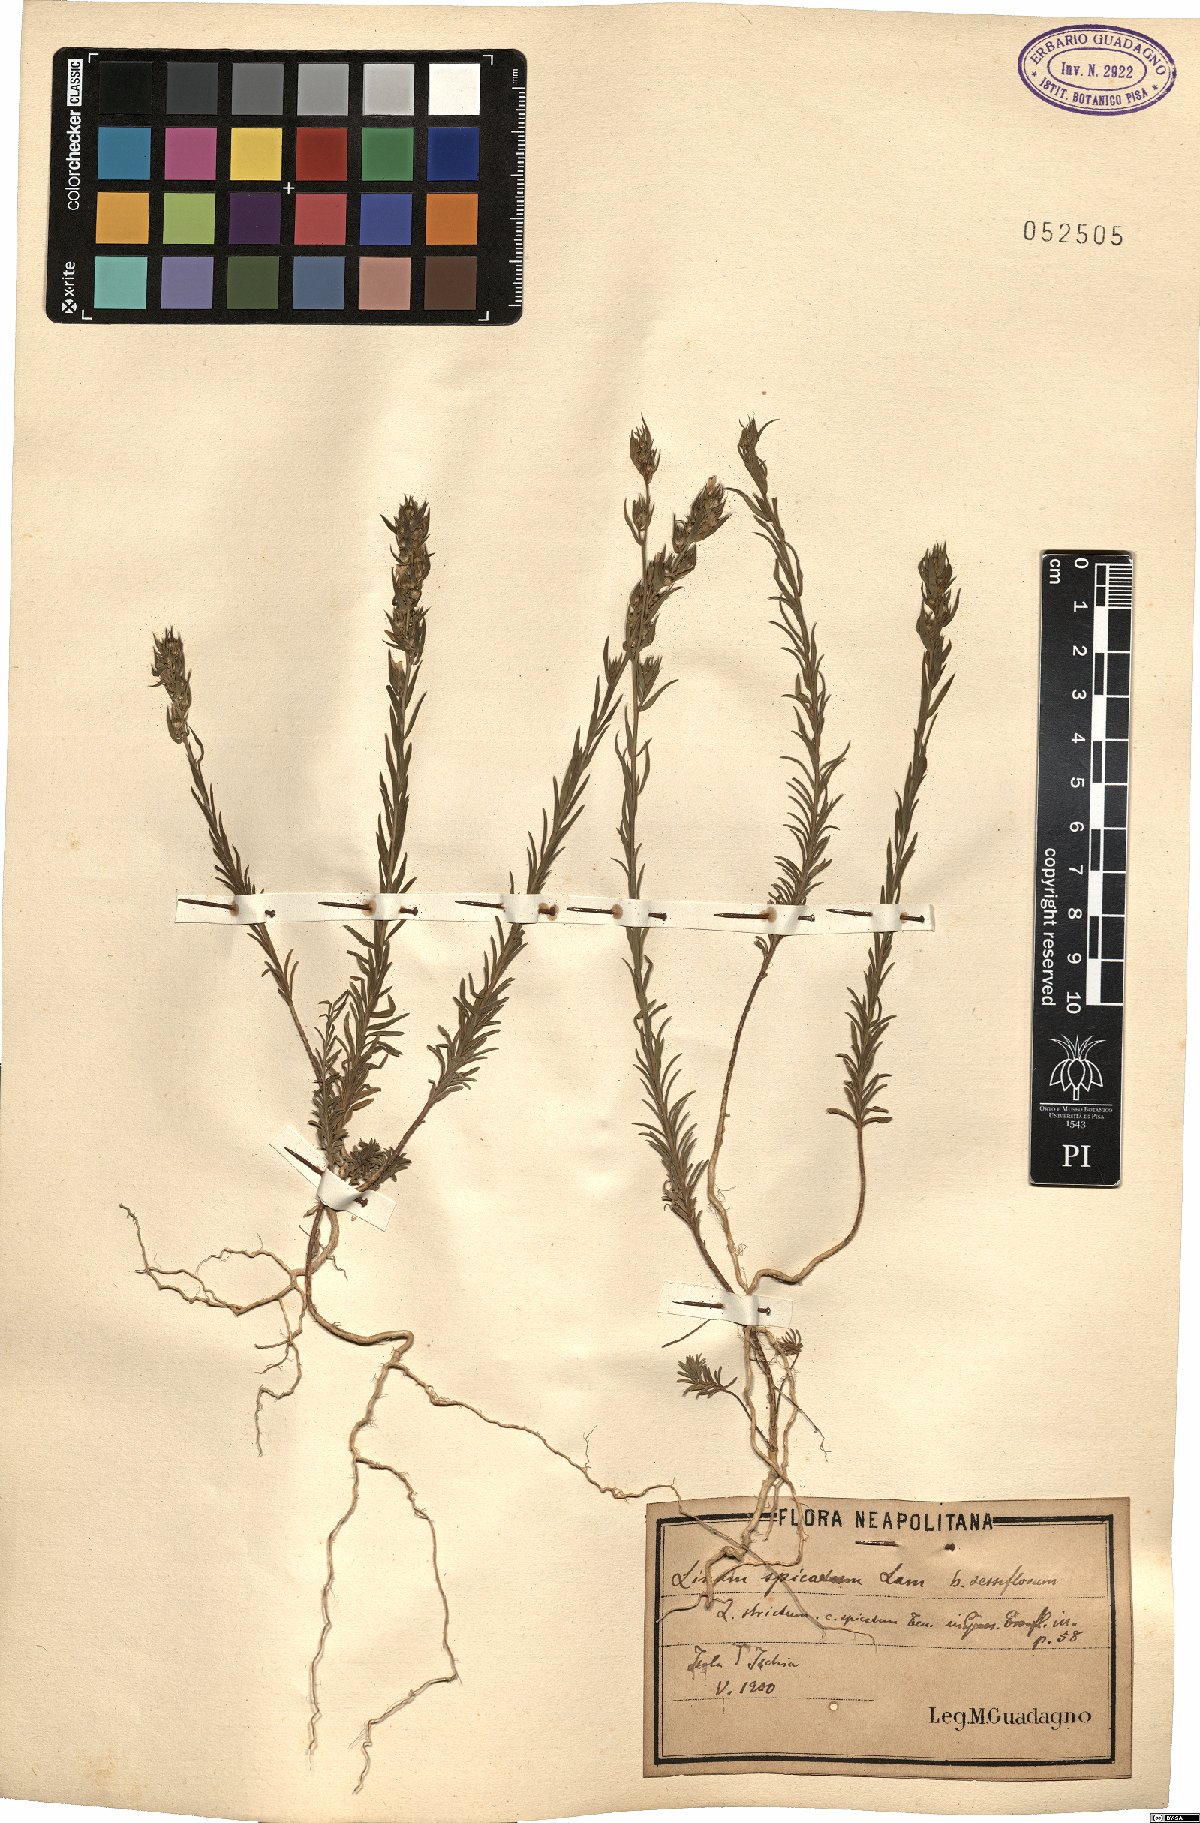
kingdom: Plantae
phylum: Tracheophyta
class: Magnoliopsida
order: Malpighiales
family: Linaceae
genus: Linum
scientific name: Linum strictum
